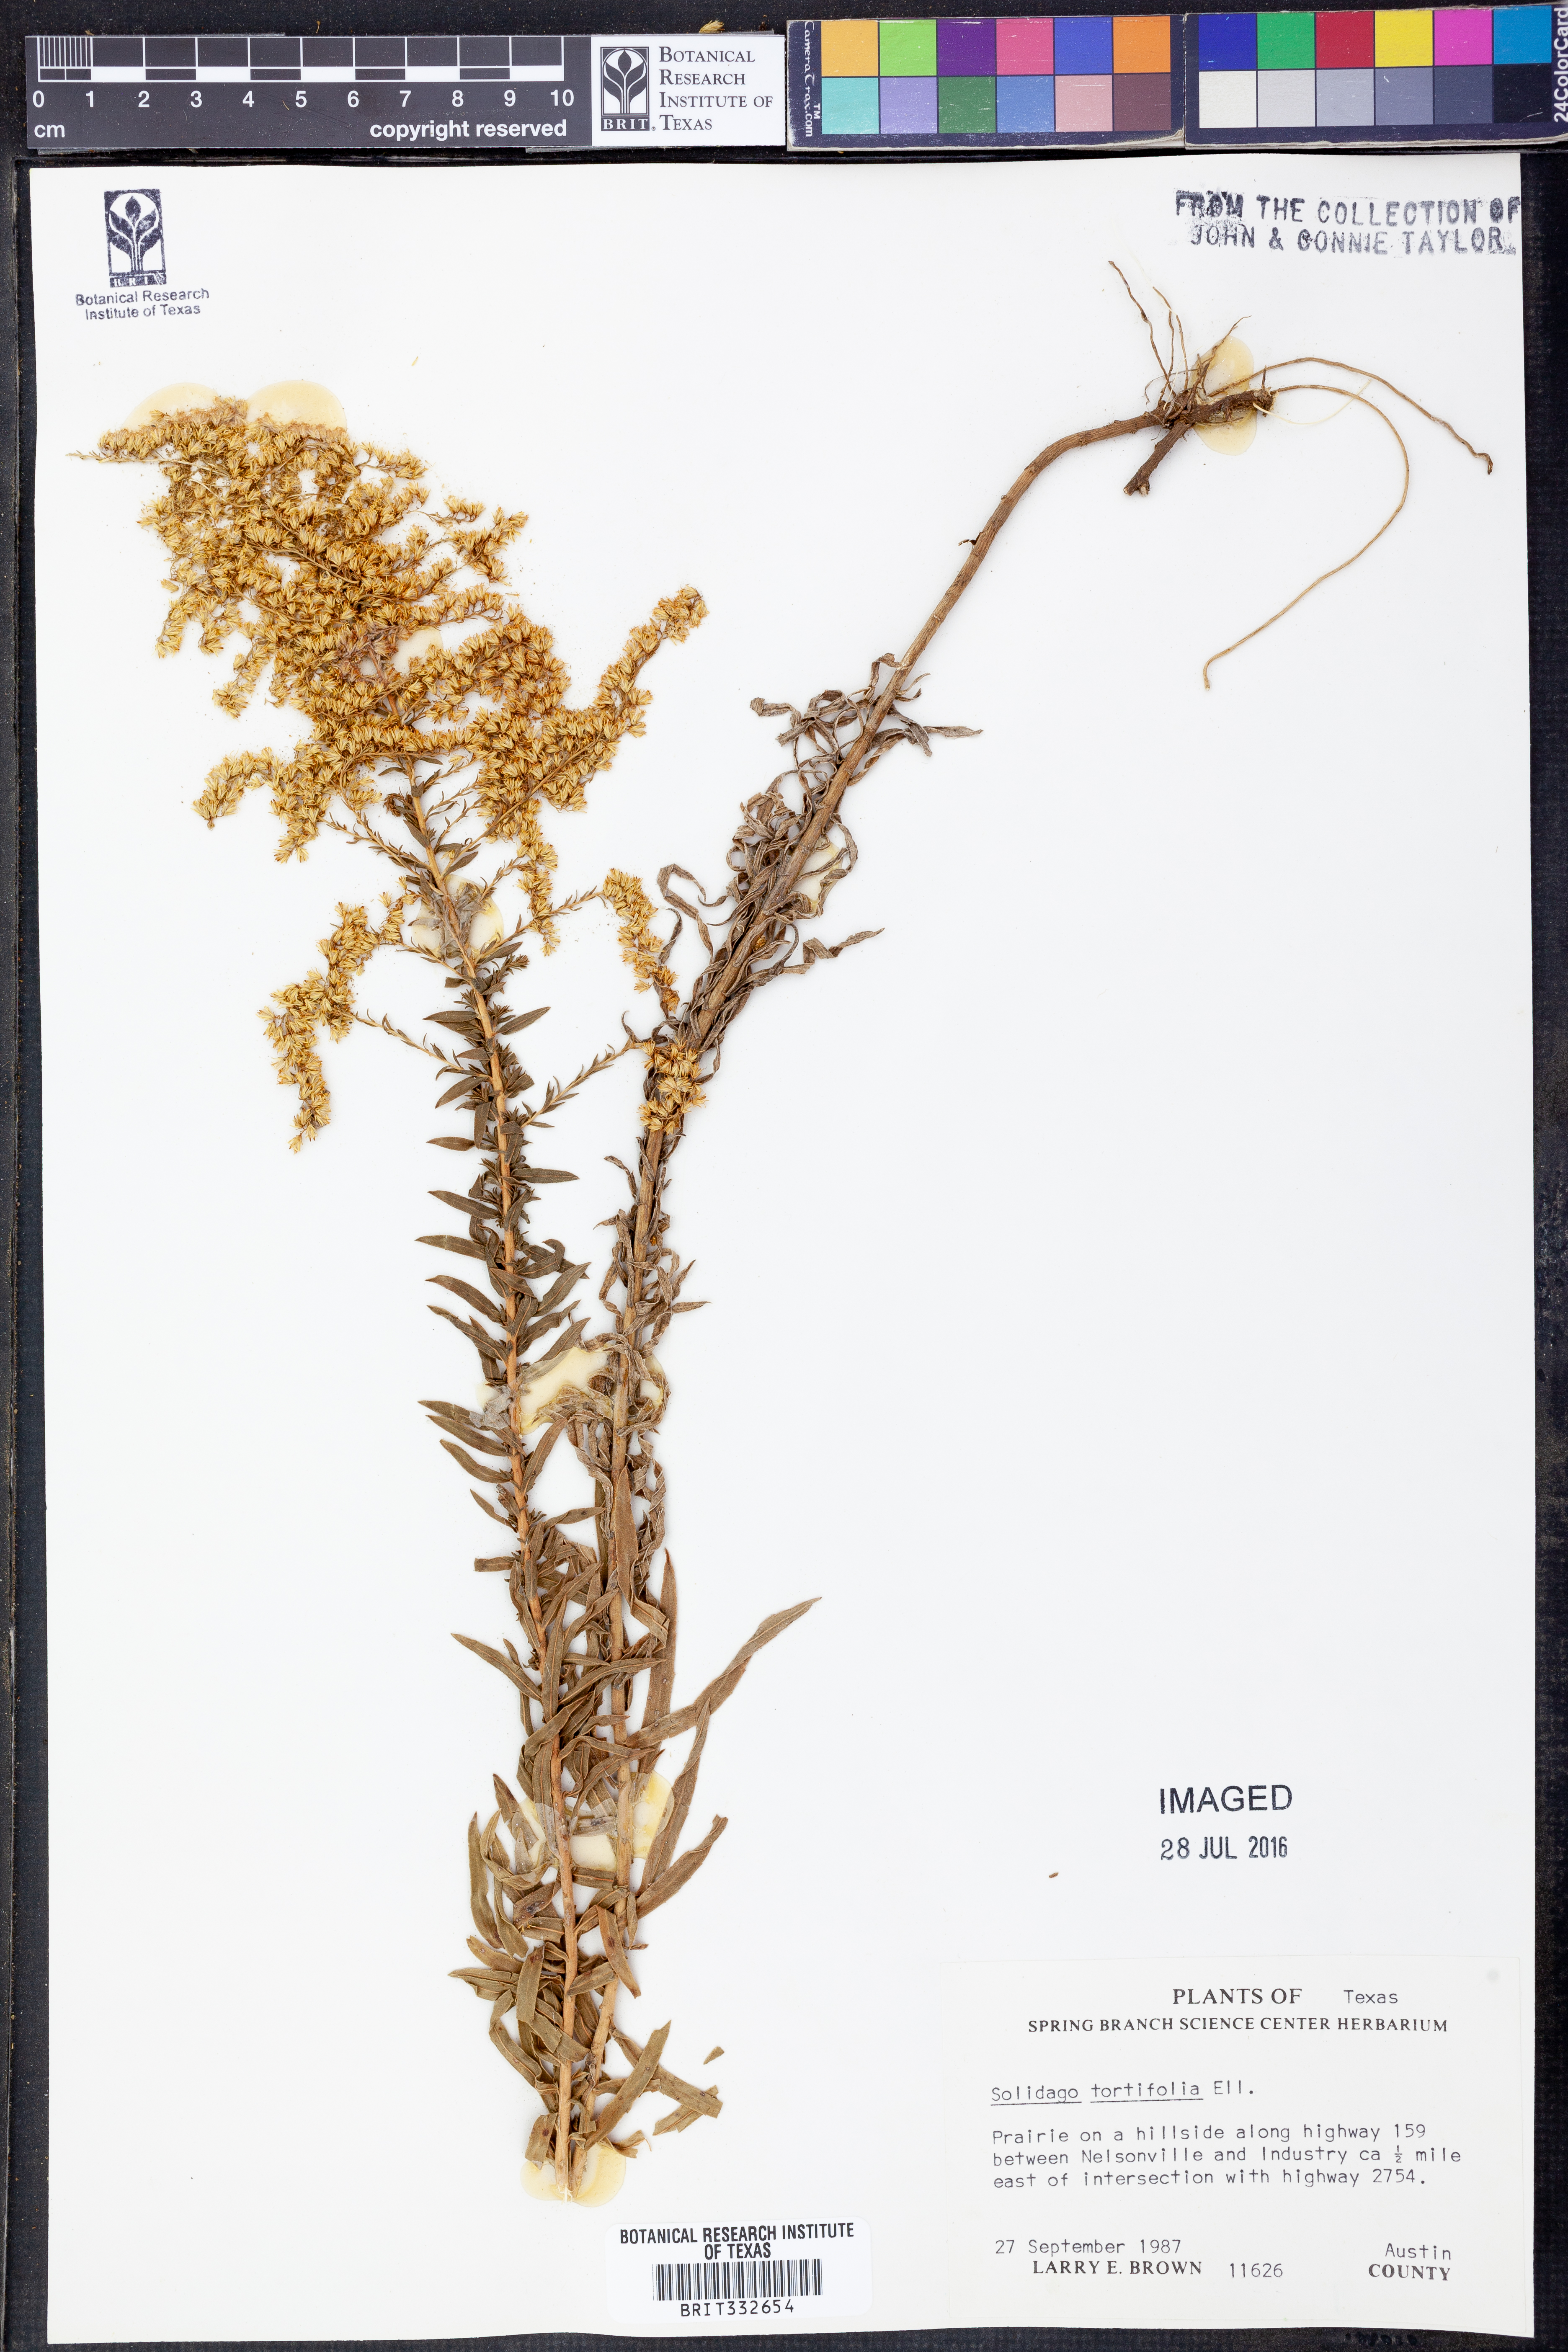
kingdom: Plantae
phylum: Tracheophyta
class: Magnoliopsida
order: Asterales
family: Asteraceae
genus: Solidago
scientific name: Solidago tortifolia
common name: Twisted-leaf goldenrod
